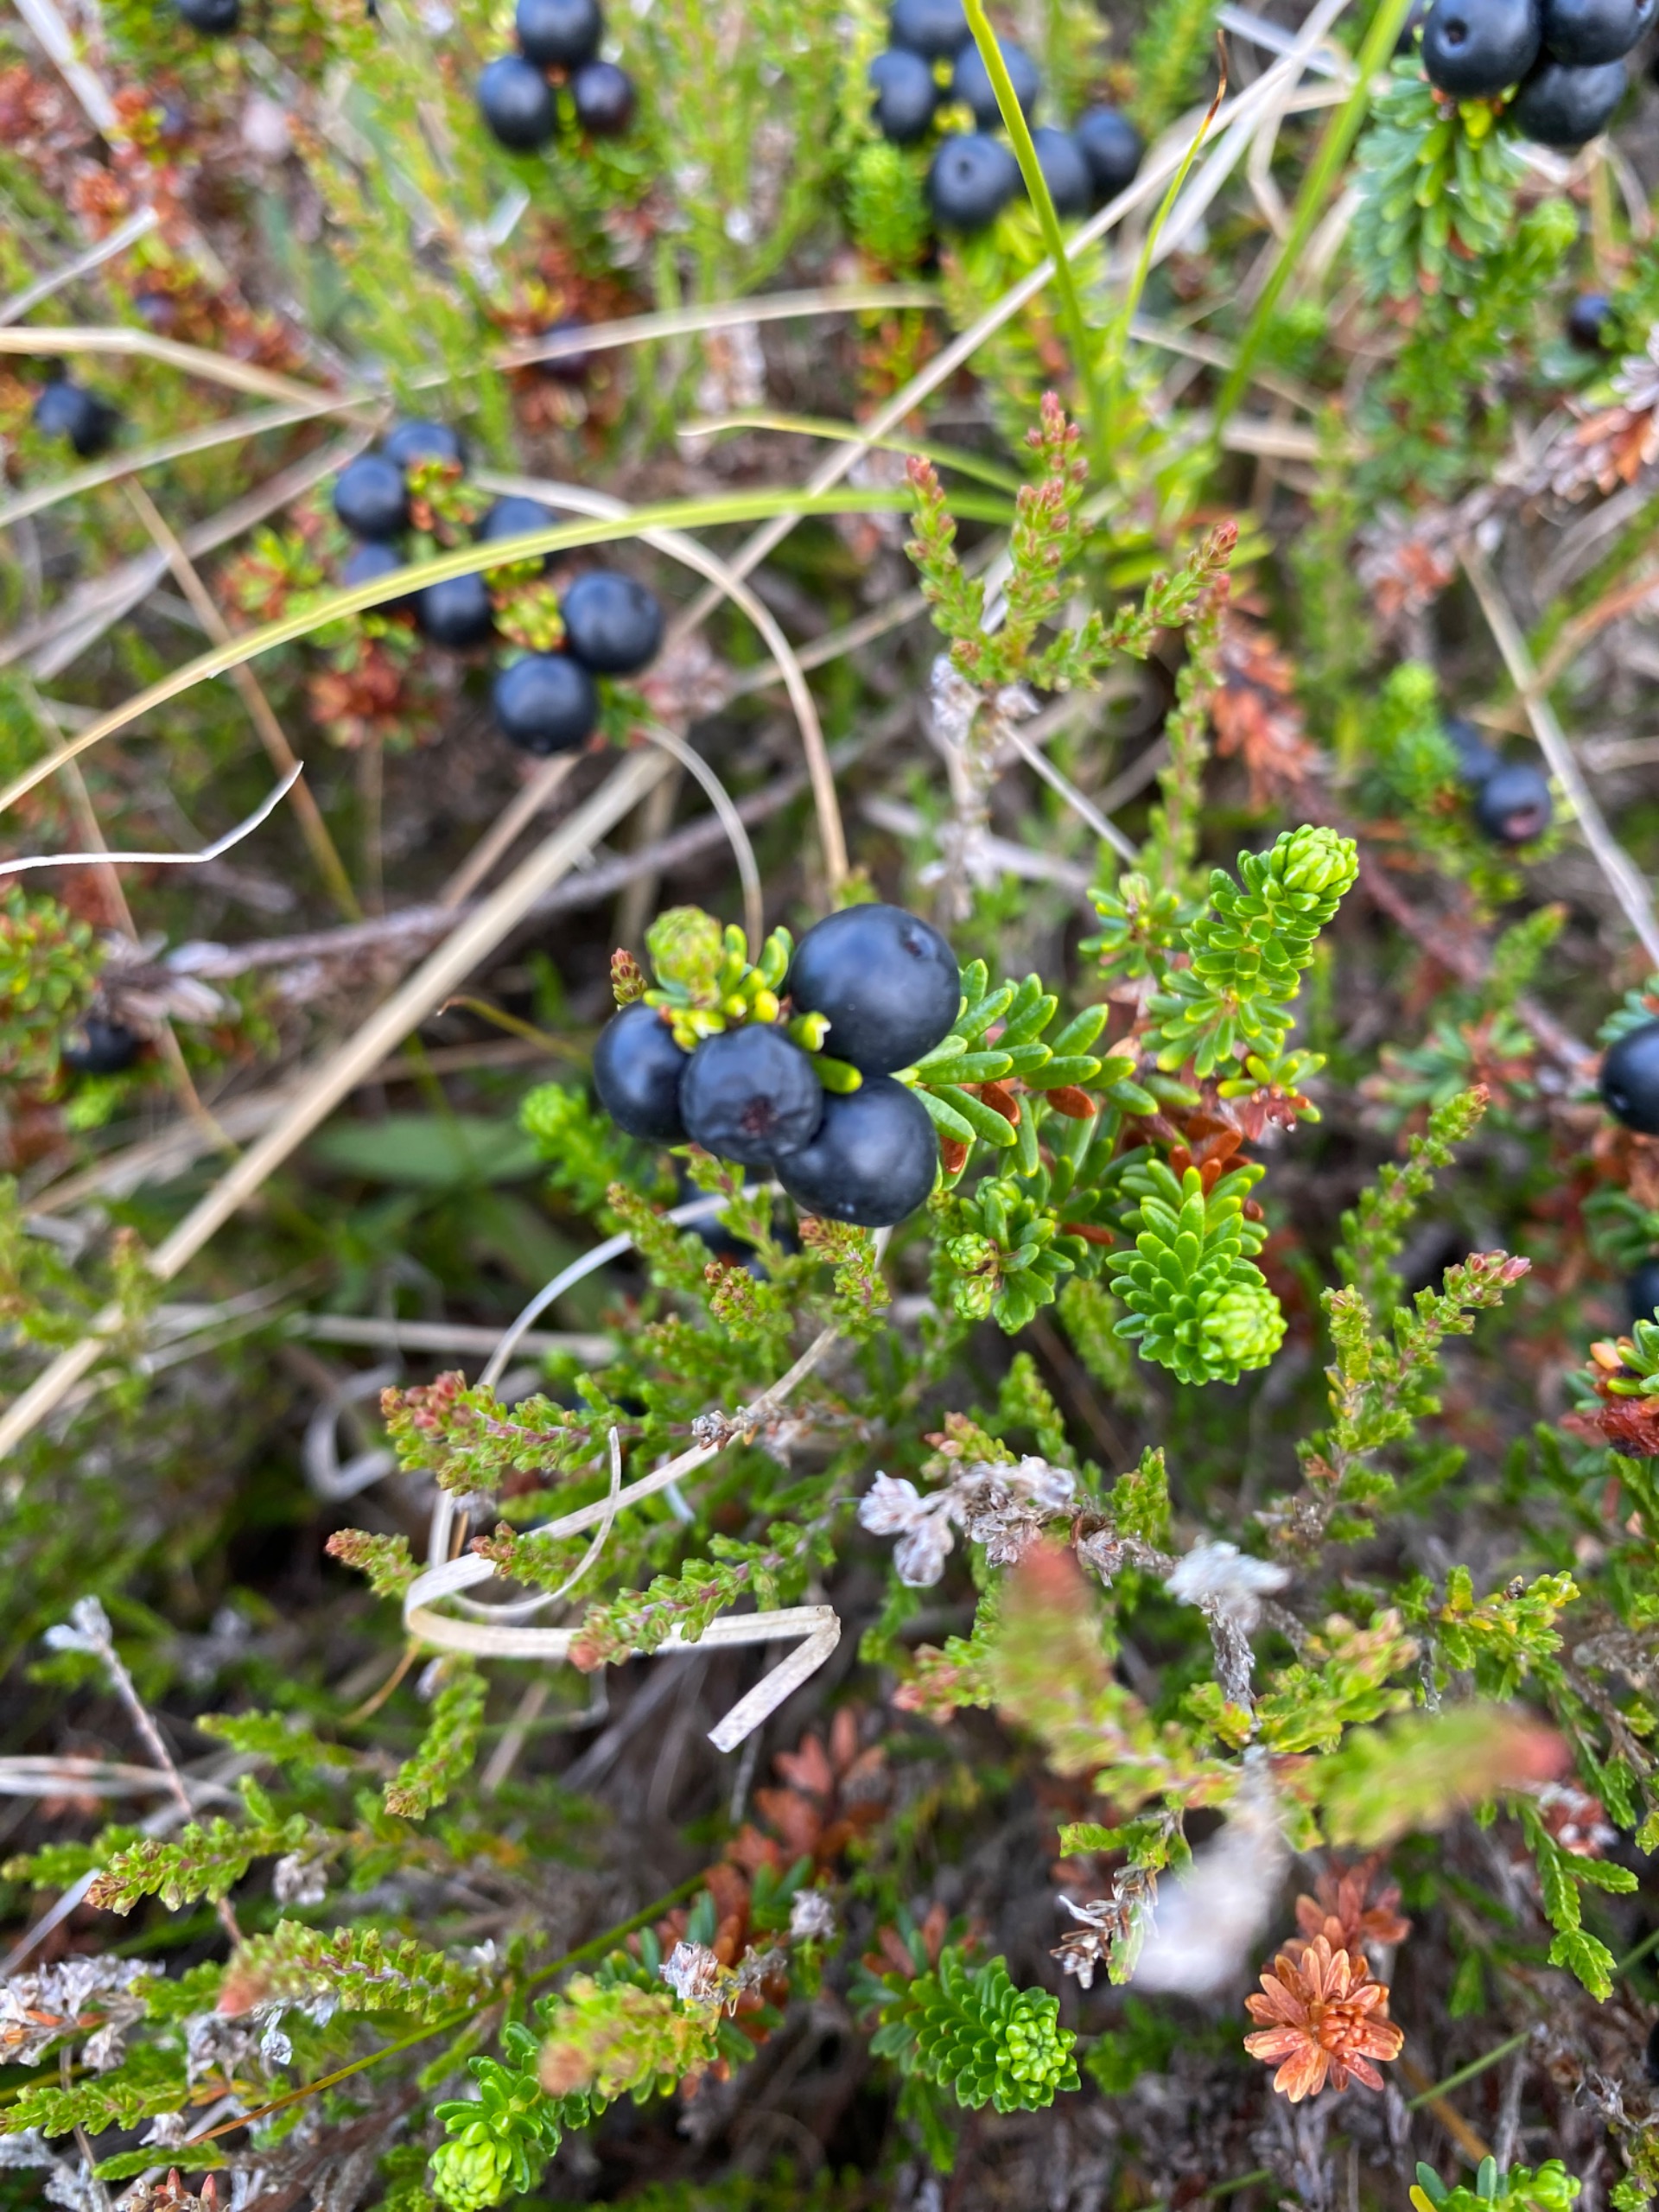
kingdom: Plantae
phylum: Tracheophyta
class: Magnoliopsida
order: Ericales
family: Ericaceae
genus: Empetrum
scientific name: Empetrum nigrum
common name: Revling
